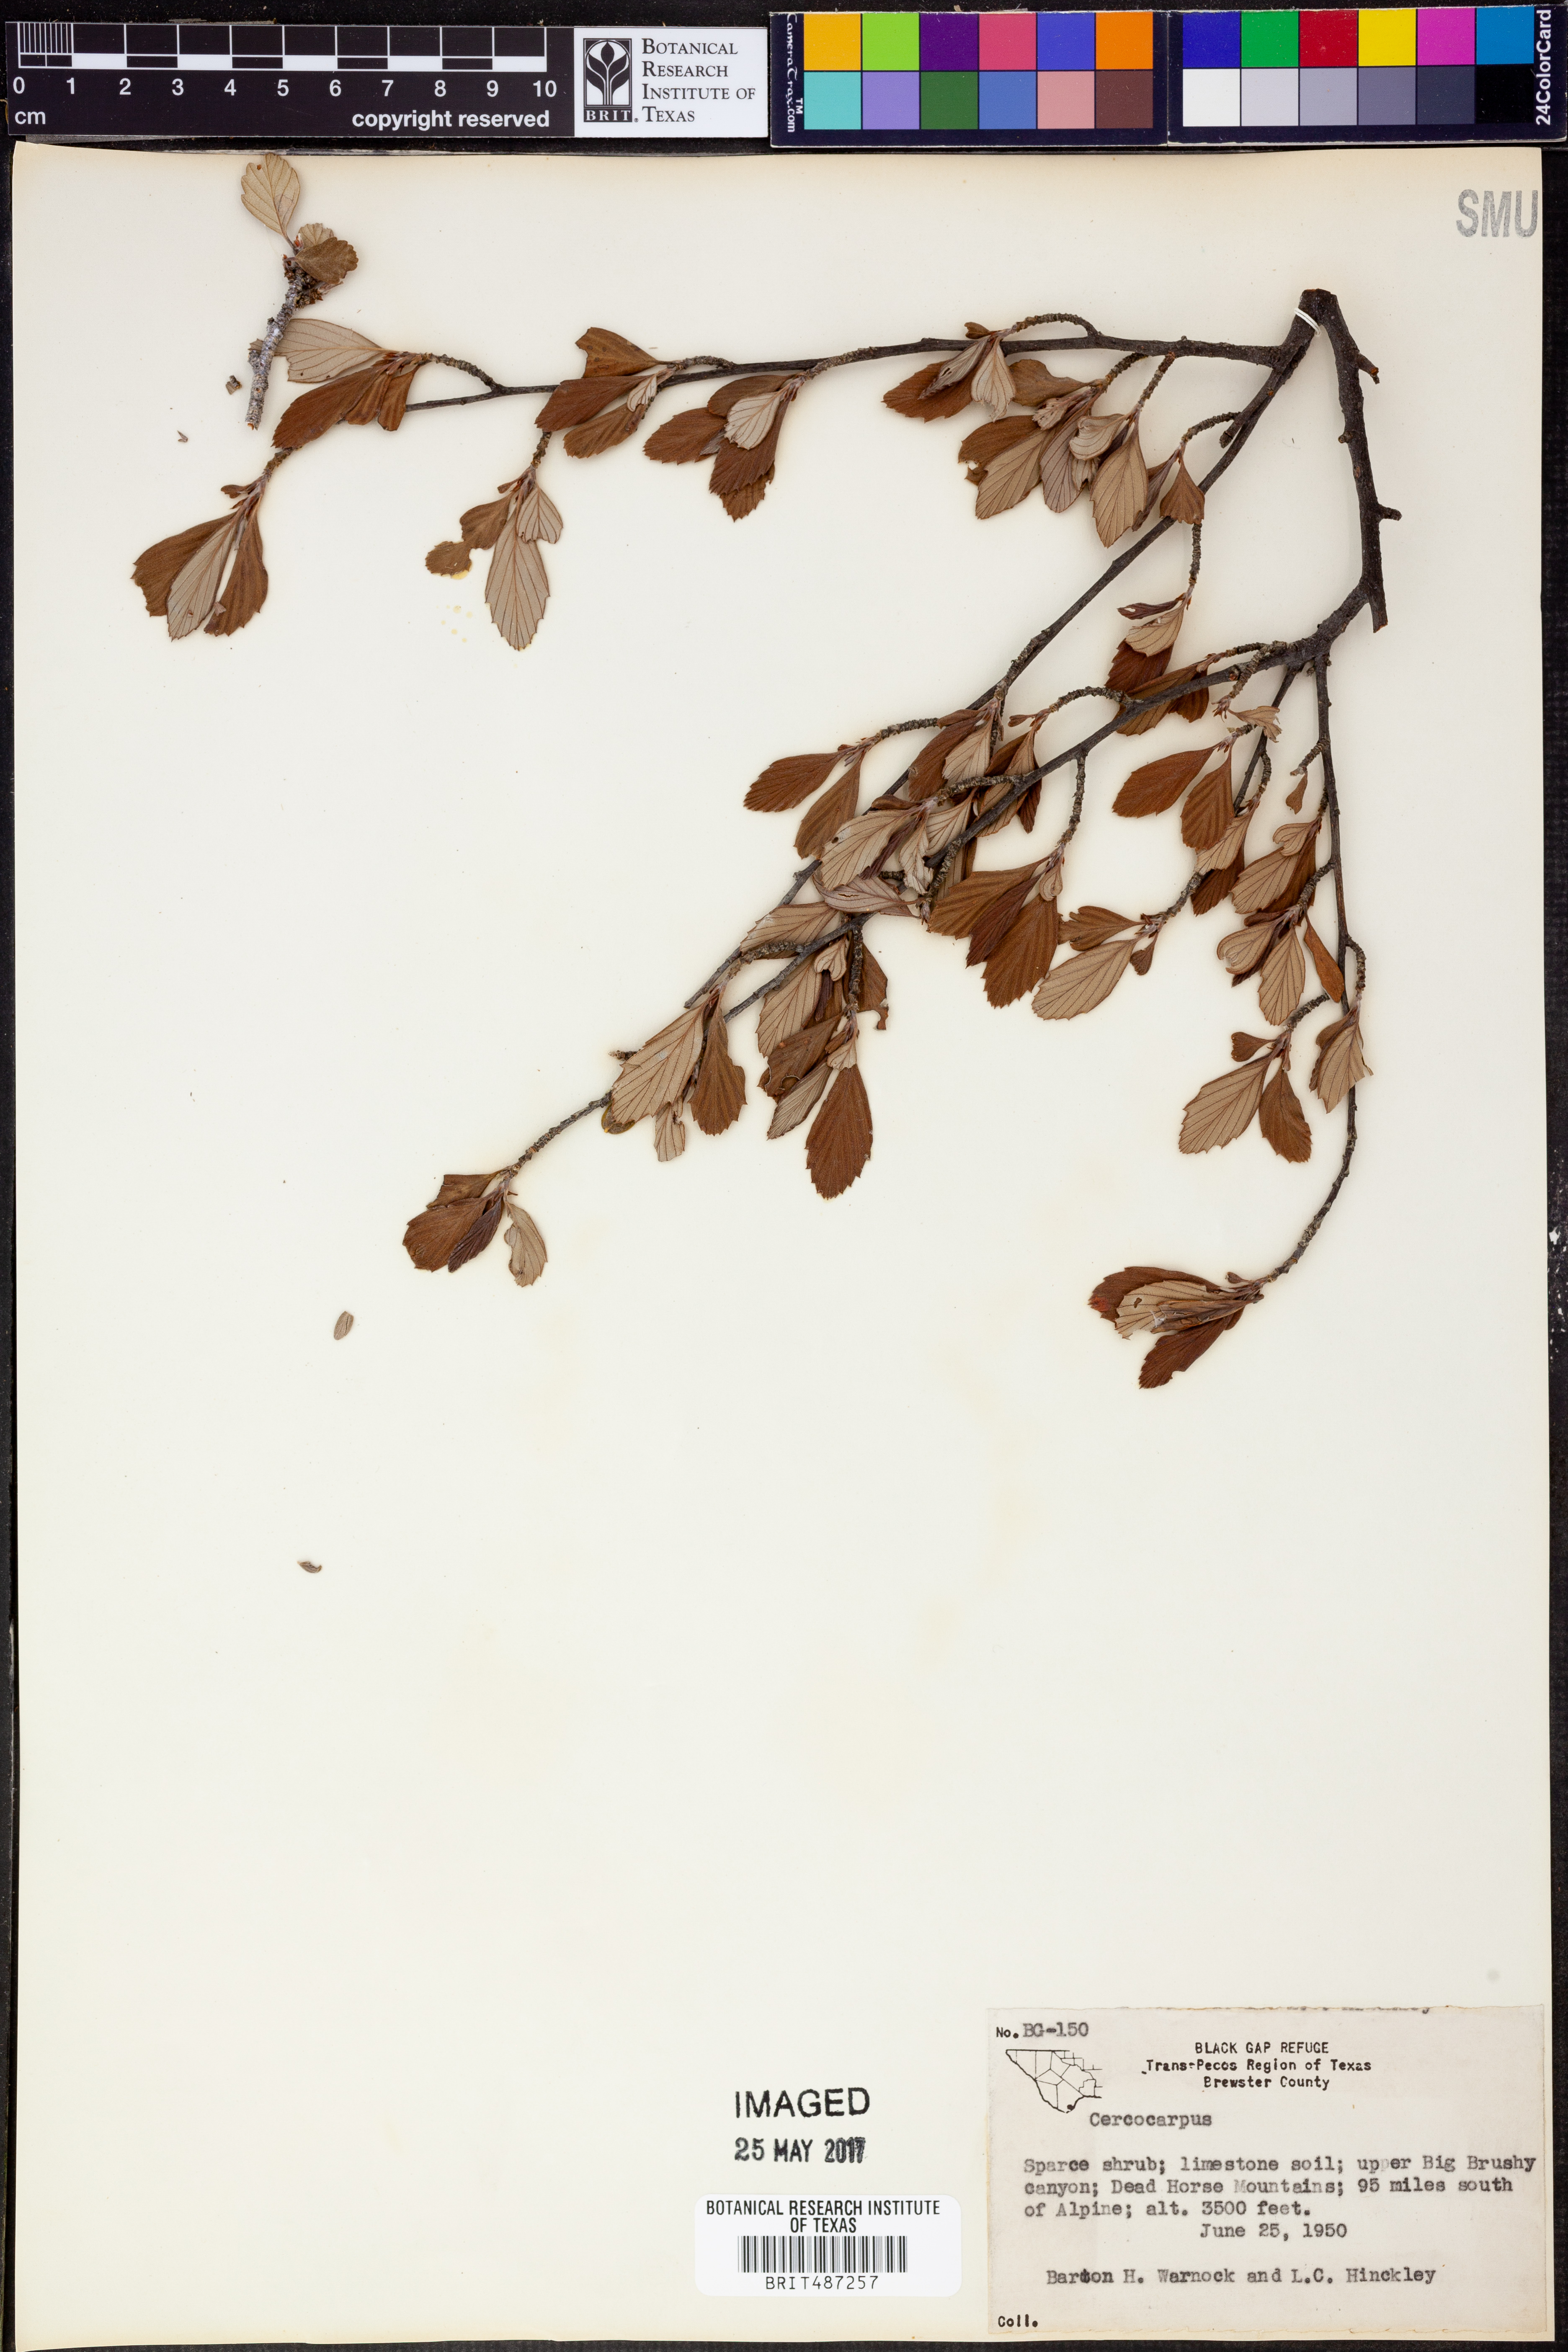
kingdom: Plantae
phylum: Tracheophyta
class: Magnoliopsida
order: Rosales
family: Rosaceae
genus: Cercocarpus
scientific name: Cercocarpus
